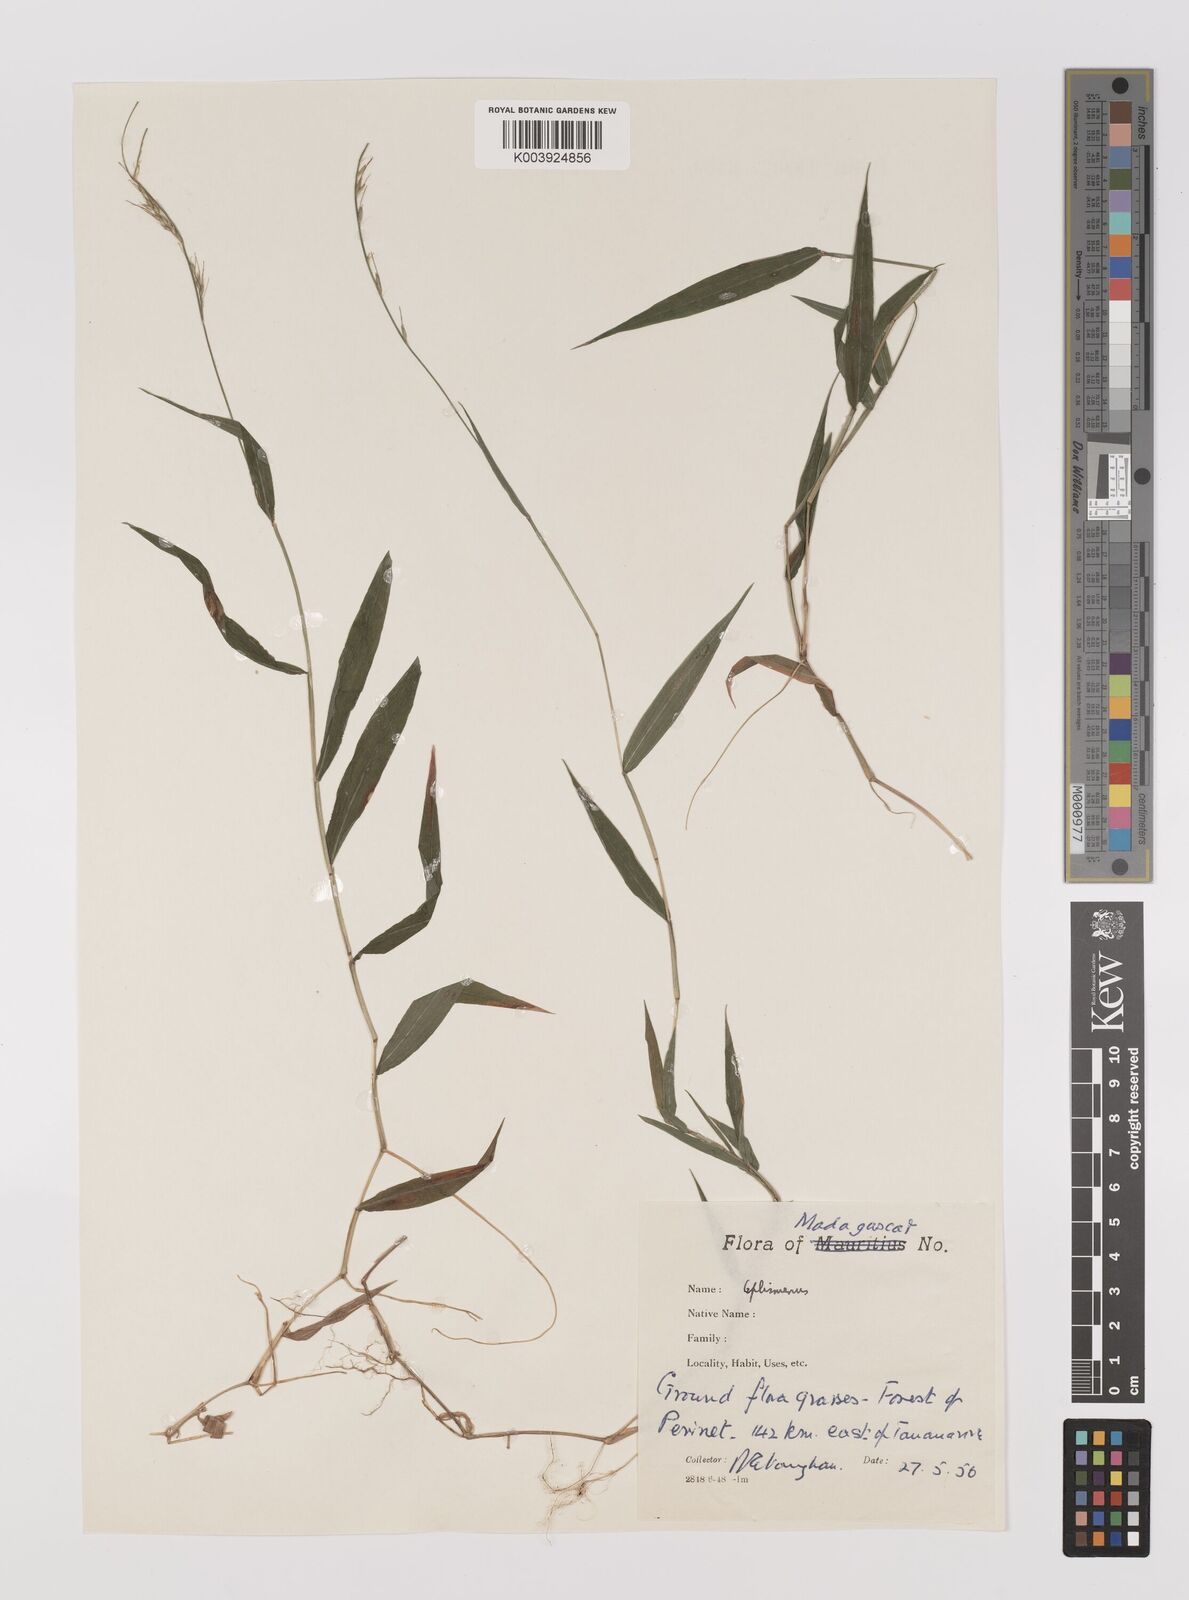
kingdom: Plantae
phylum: Tracheophyta
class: Liliopsida
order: Poales
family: Poaceae
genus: Oplismenus
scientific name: Oplismenus compositus
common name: Running mountain grass
